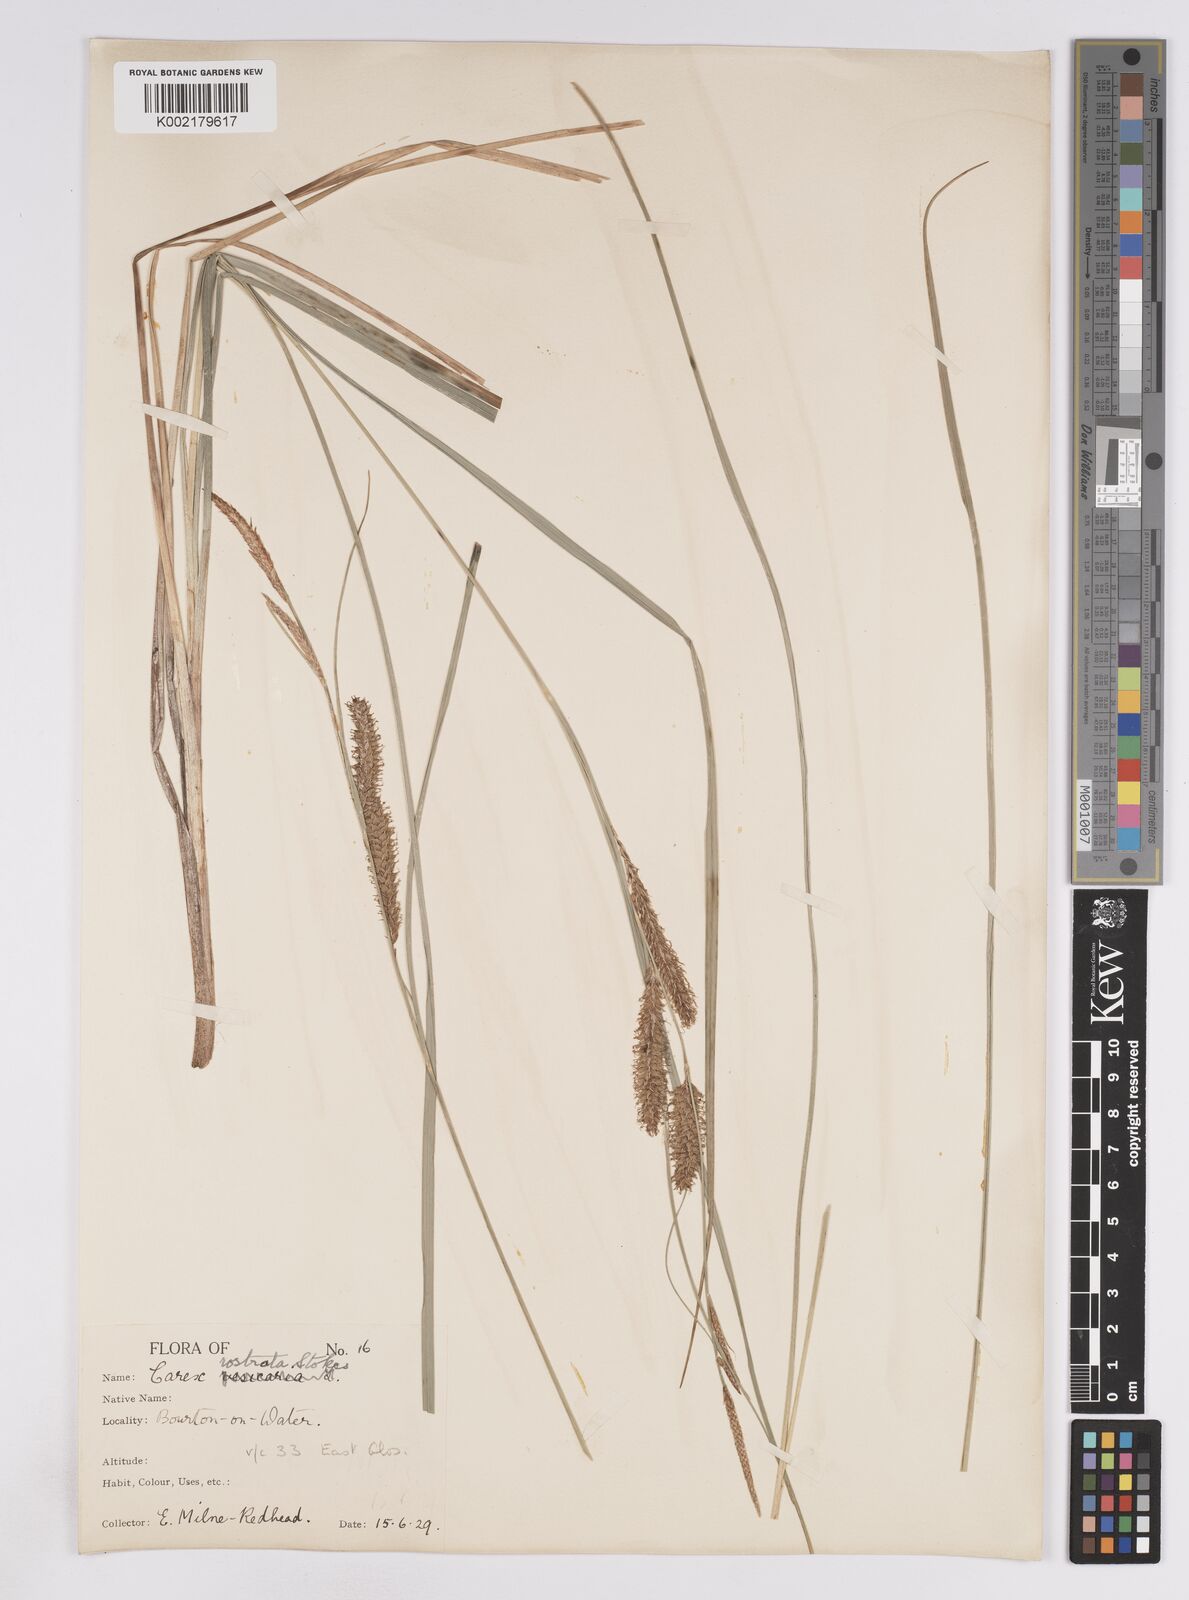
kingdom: Plantae
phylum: Tracheophyta
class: Liliopsida
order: Poales
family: Cyperaceae
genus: Carex
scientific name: Carex rostrata
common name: Bottle sedge
